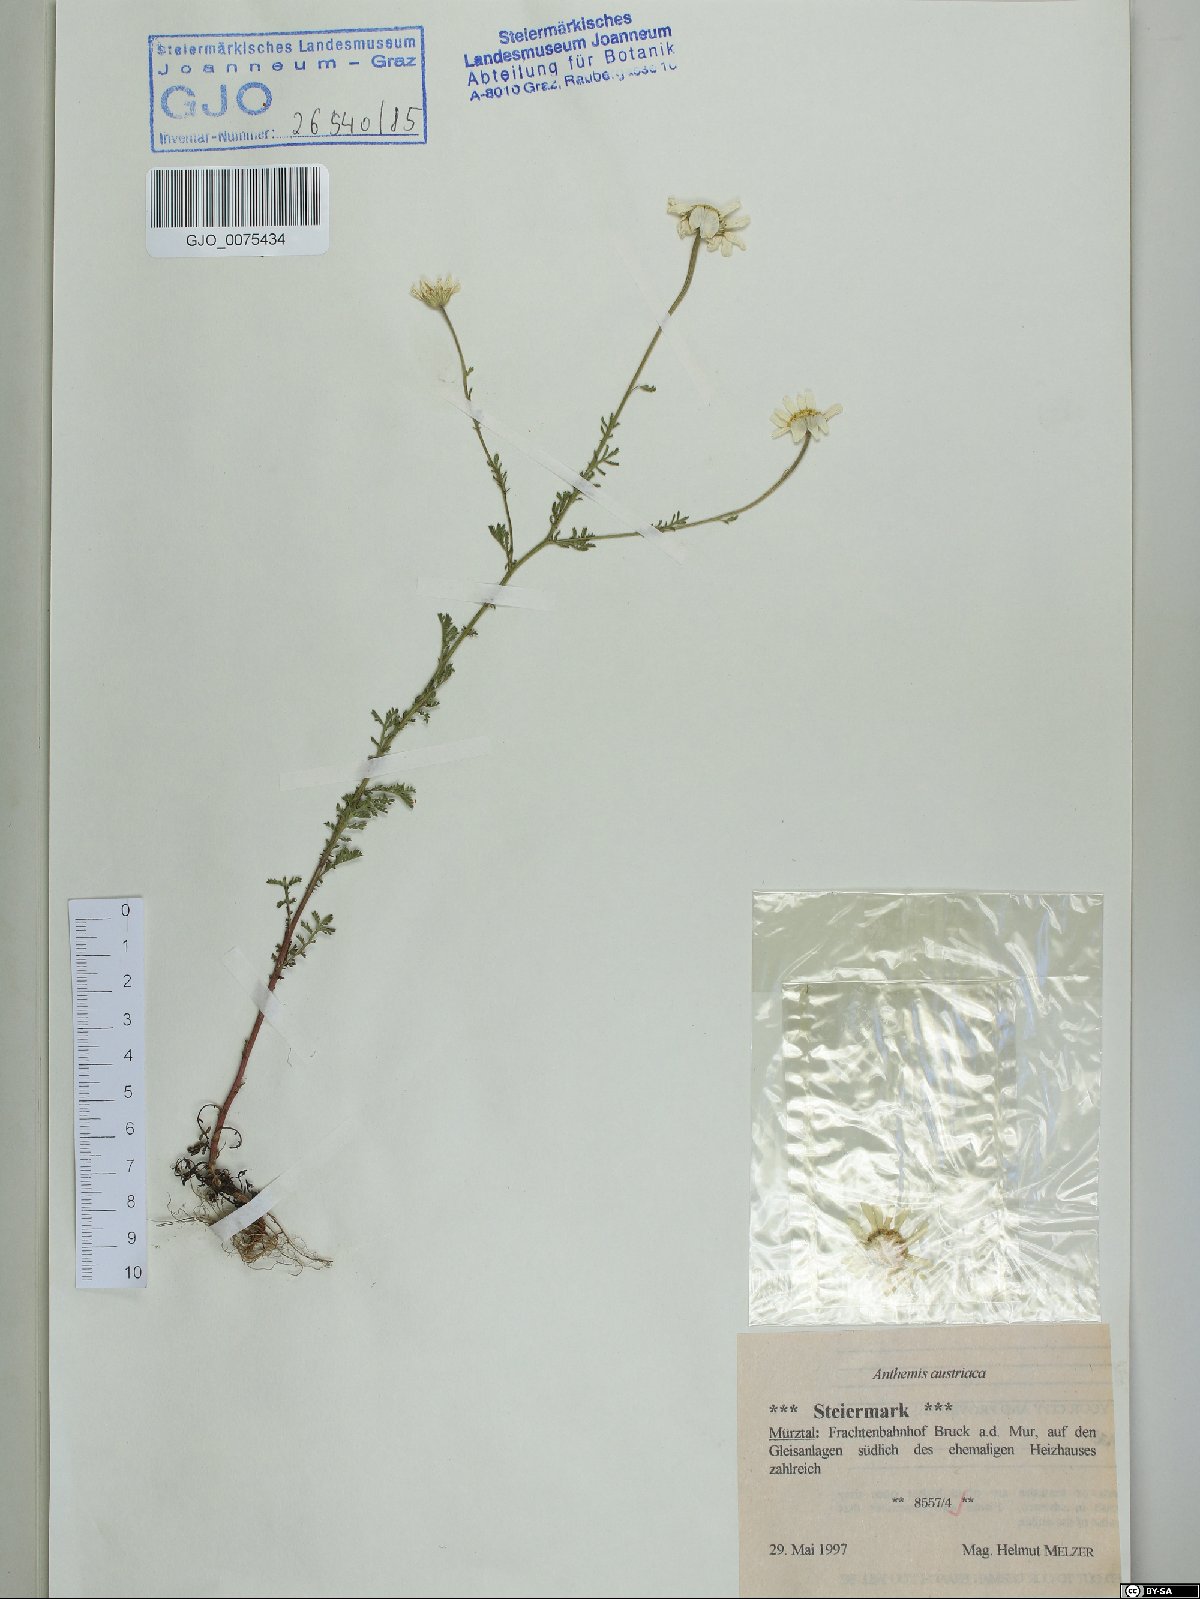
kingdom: Plantae
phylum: Tracheophyta
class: Magnoliopsida
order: Asterales
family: Asteraceae
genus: Cota
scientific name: Cota austriaca
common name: Austrian chamomile
